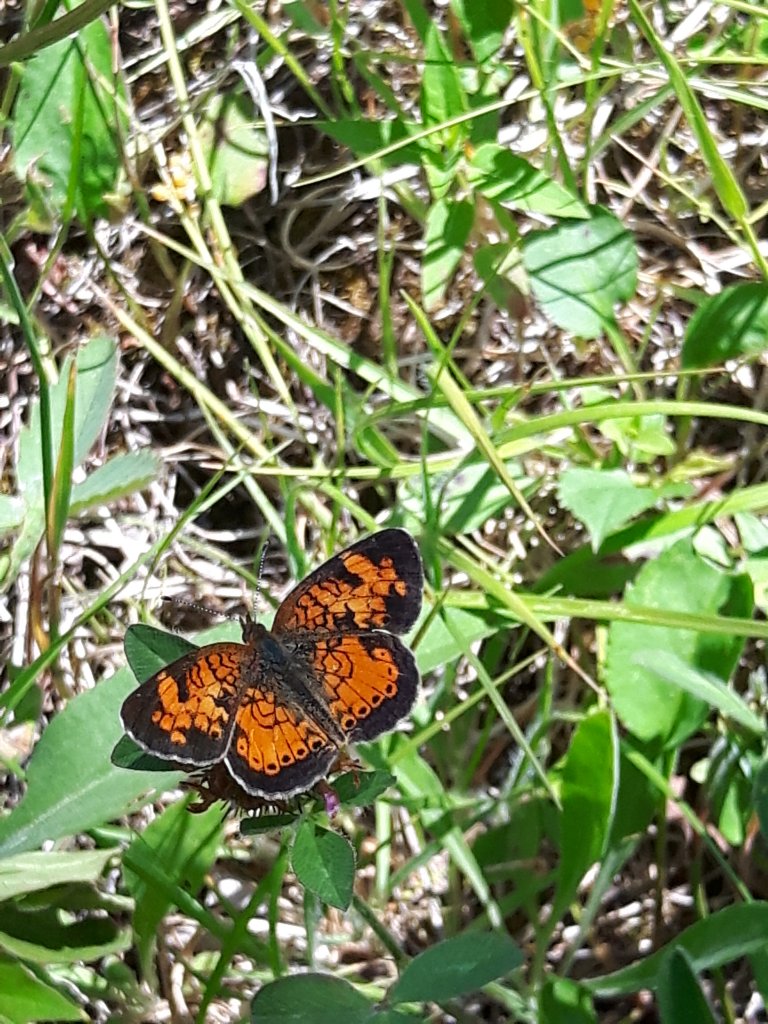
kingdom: Animalia
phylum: Arthropoda
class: Insecta
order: Lepidoptera
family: Nymphalidae
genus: Phyciodes
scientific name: Phyciodes tharos
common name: Northern Crescent
